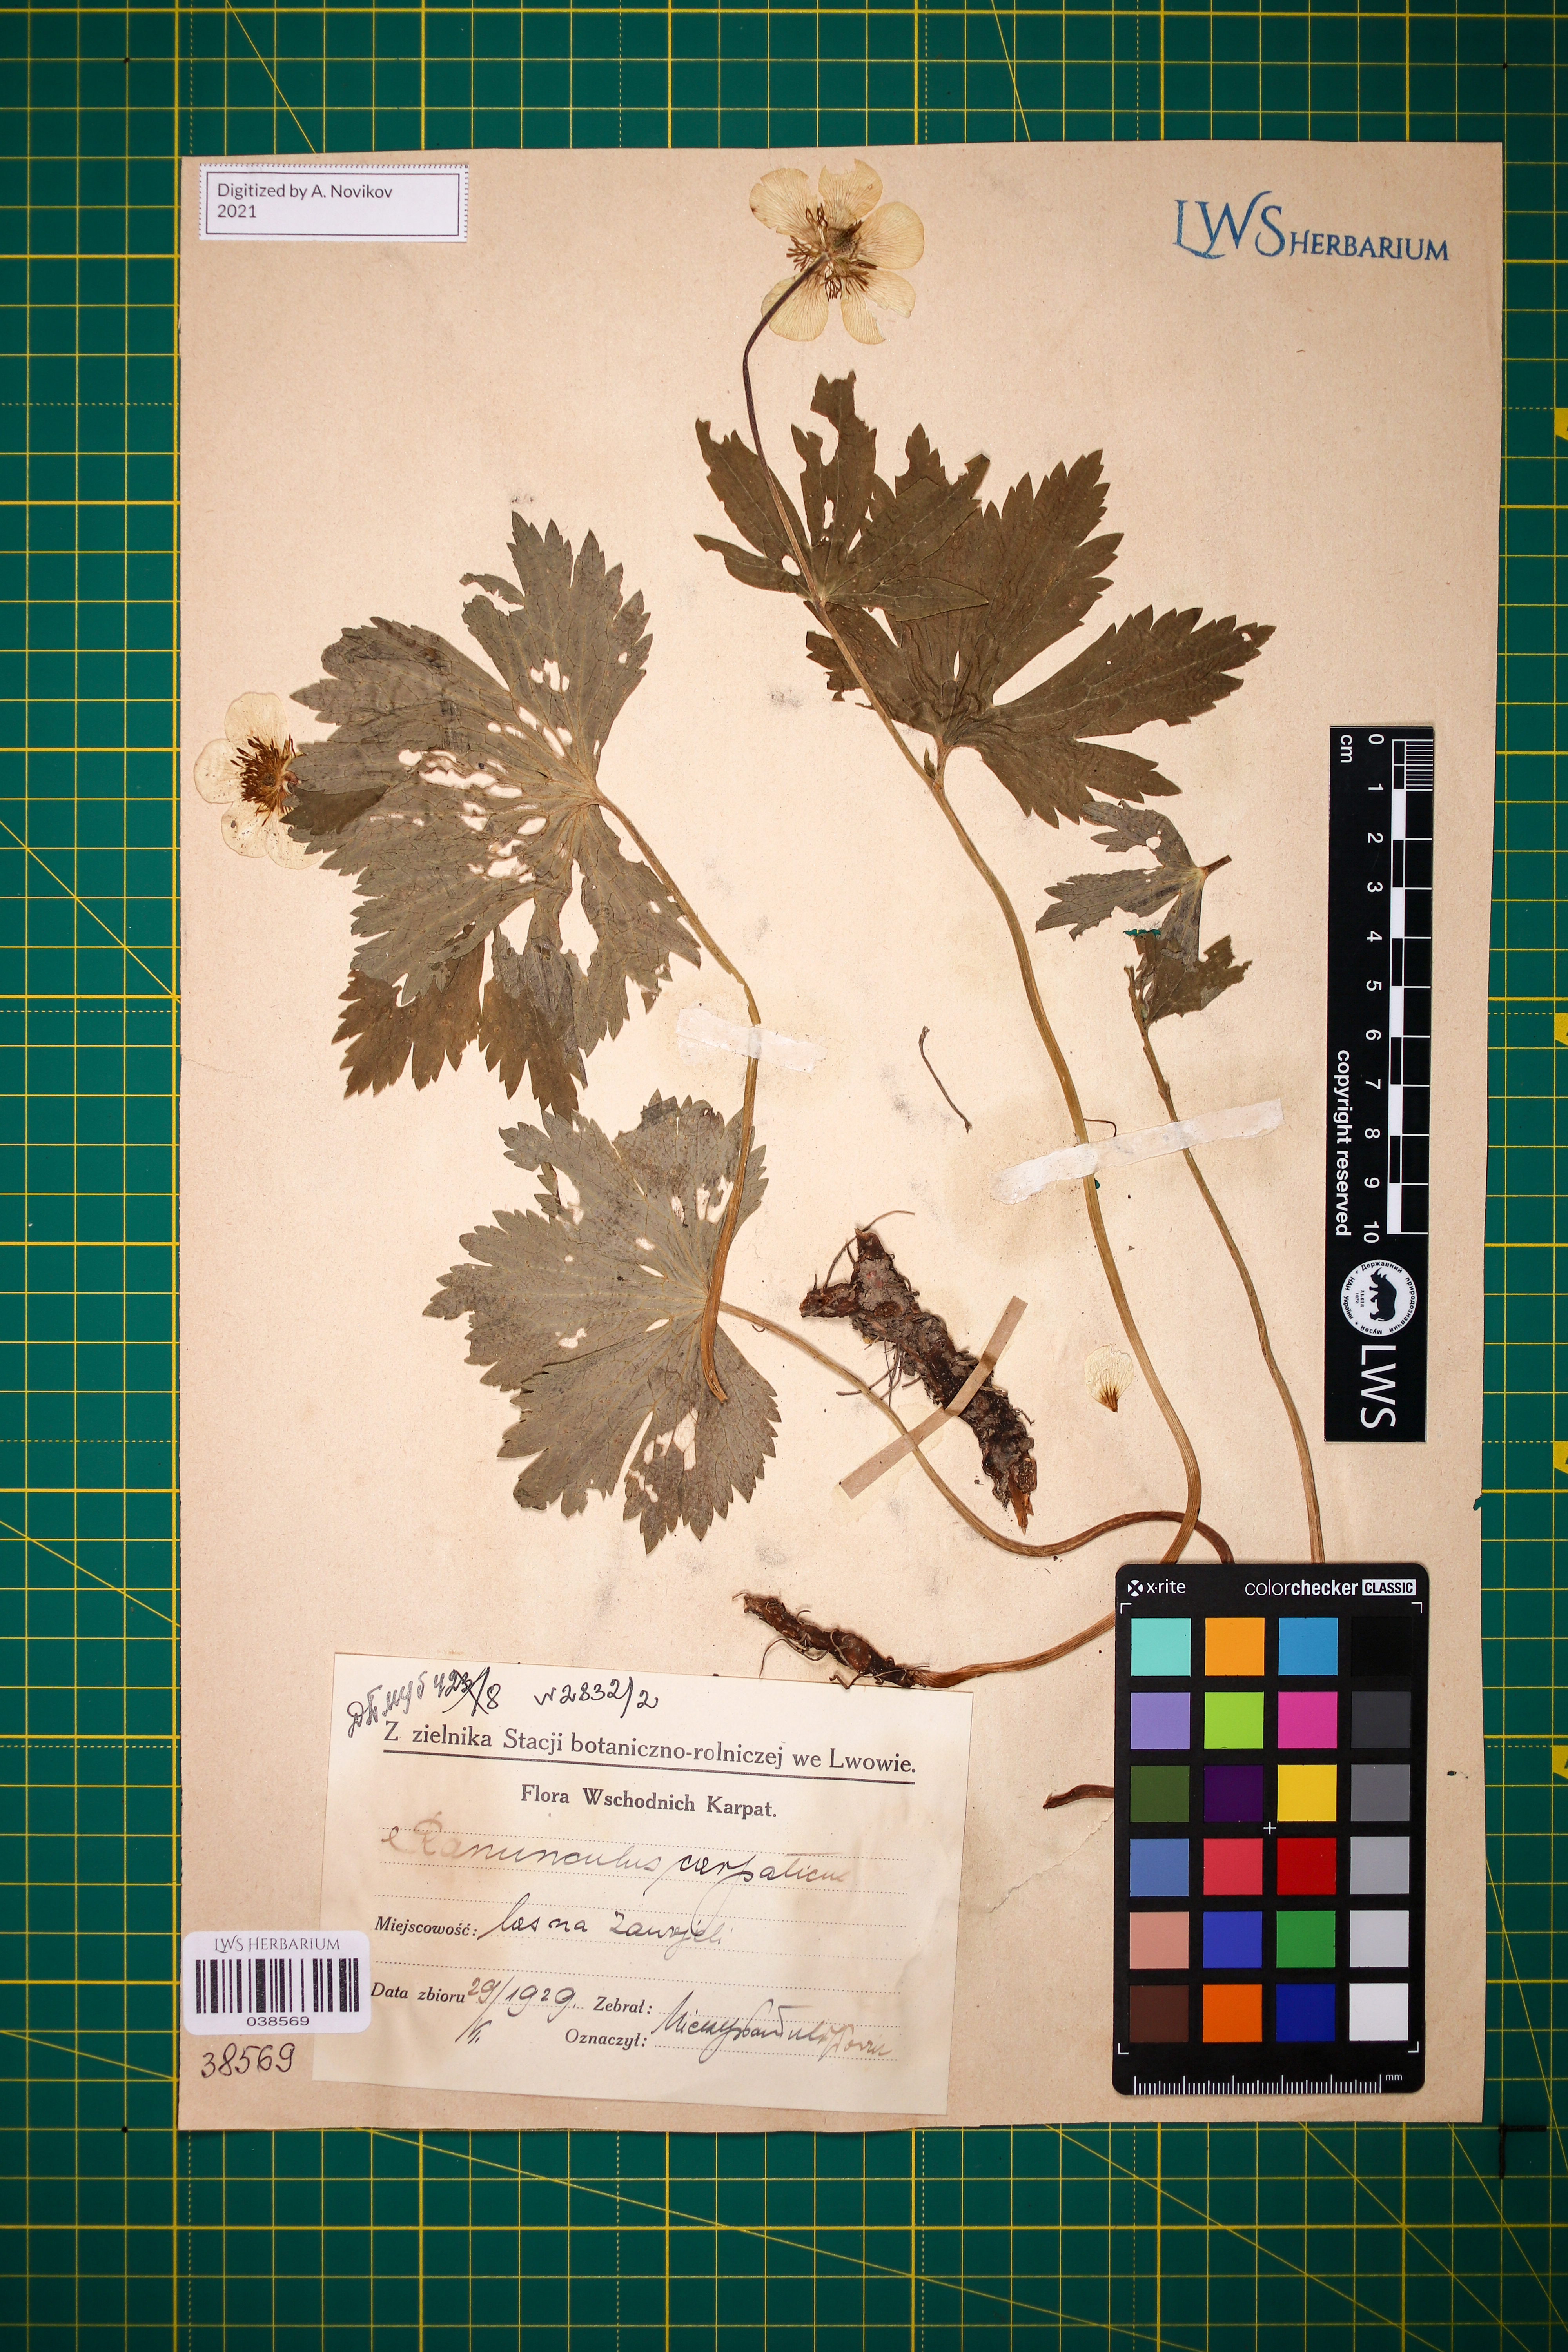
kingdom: Plantae
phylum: Tracheophyta
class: Magnoliopsida
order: Ranunculales
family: Ranunculaceae
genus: Ranunculus
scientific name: Ranunculus carpaticus
